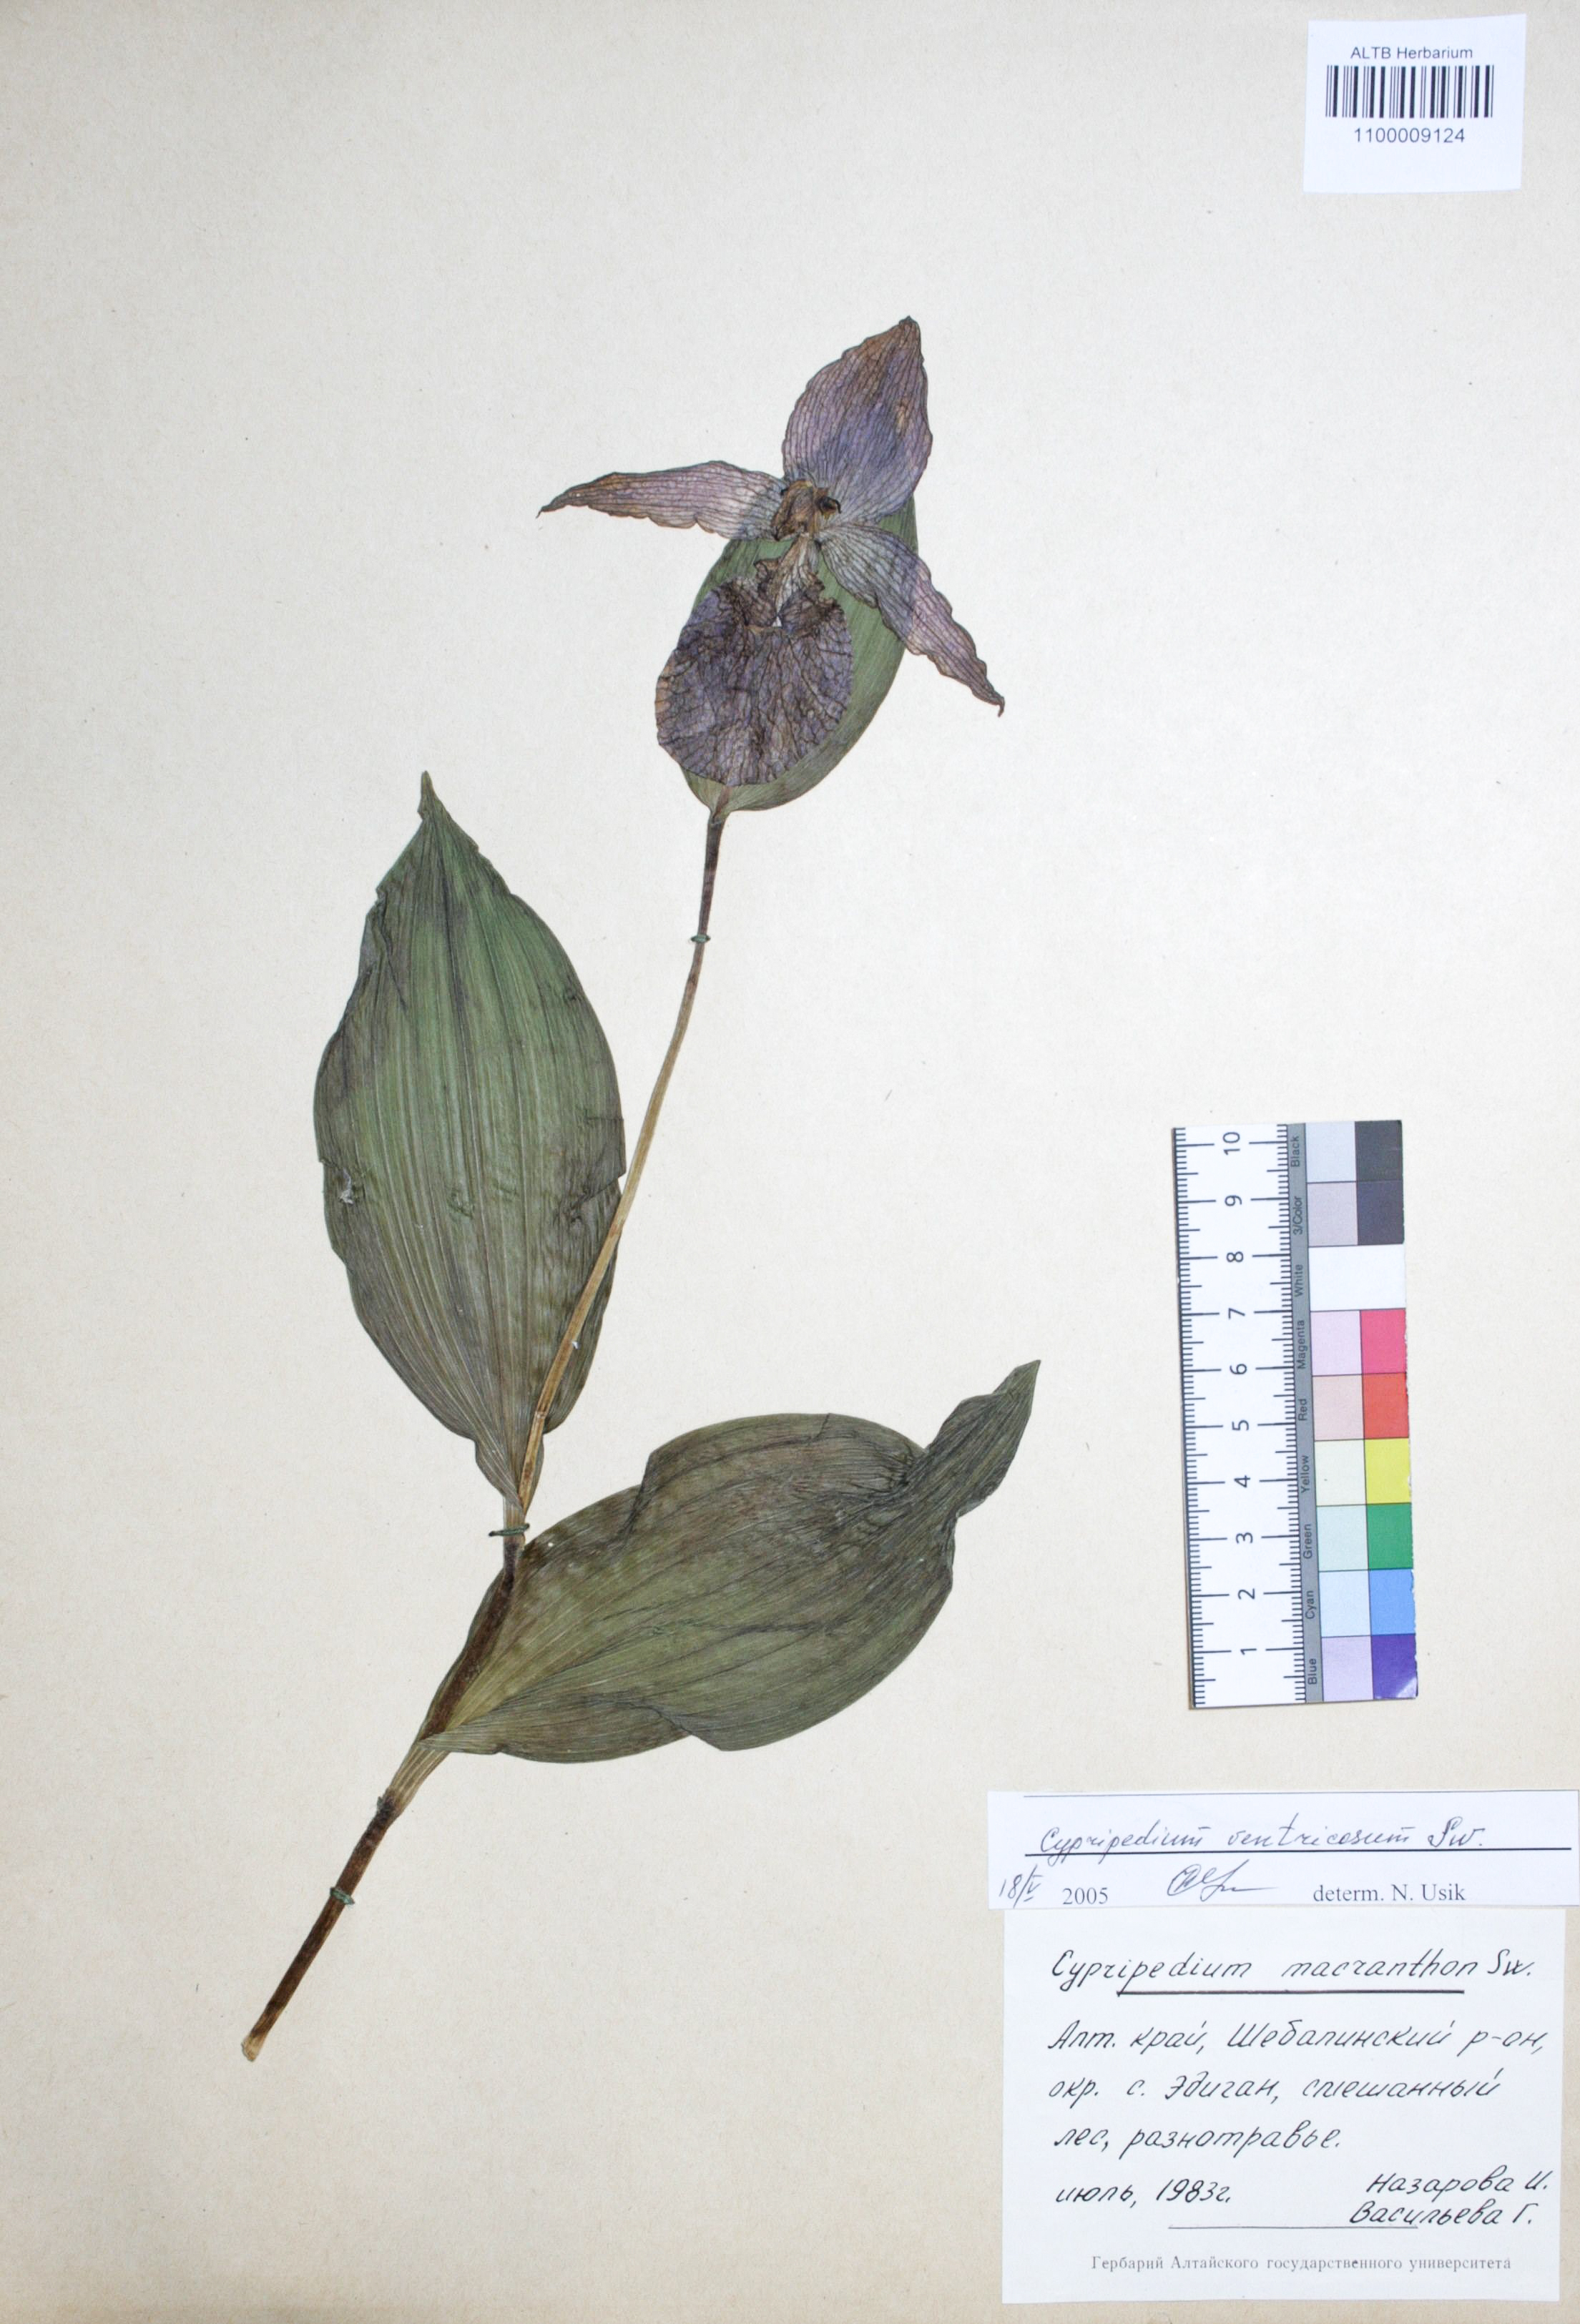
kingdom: Plantae
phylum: Tracheophyta
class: Liliopsida
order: Asparagales
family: Orchidaceae
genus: Cypripedium
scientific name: Cypripedium macranthon
